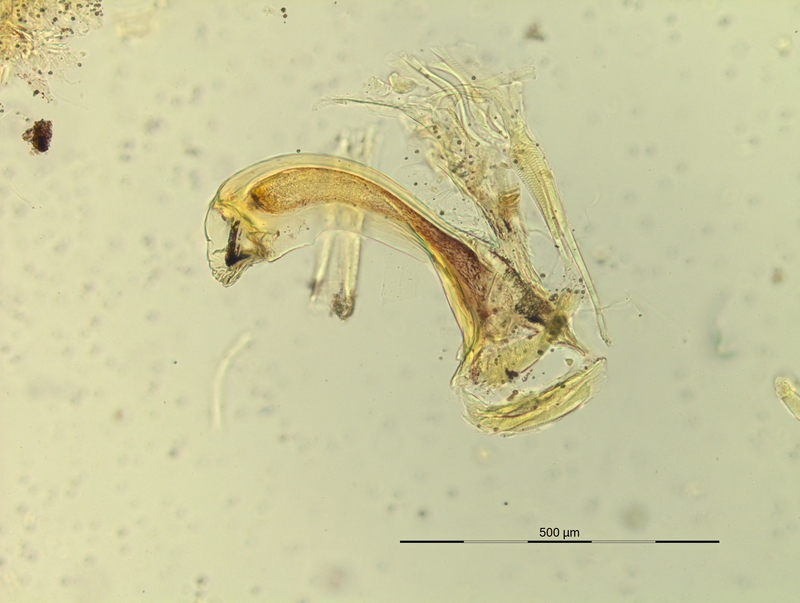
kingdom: Animalia
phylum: Arthropoda
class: Diplopoda
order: Chordeumatida
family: Craspedosomatidae
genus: Pyrgocyphosoma
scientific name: Pyrgocyphosoma tridentinum
